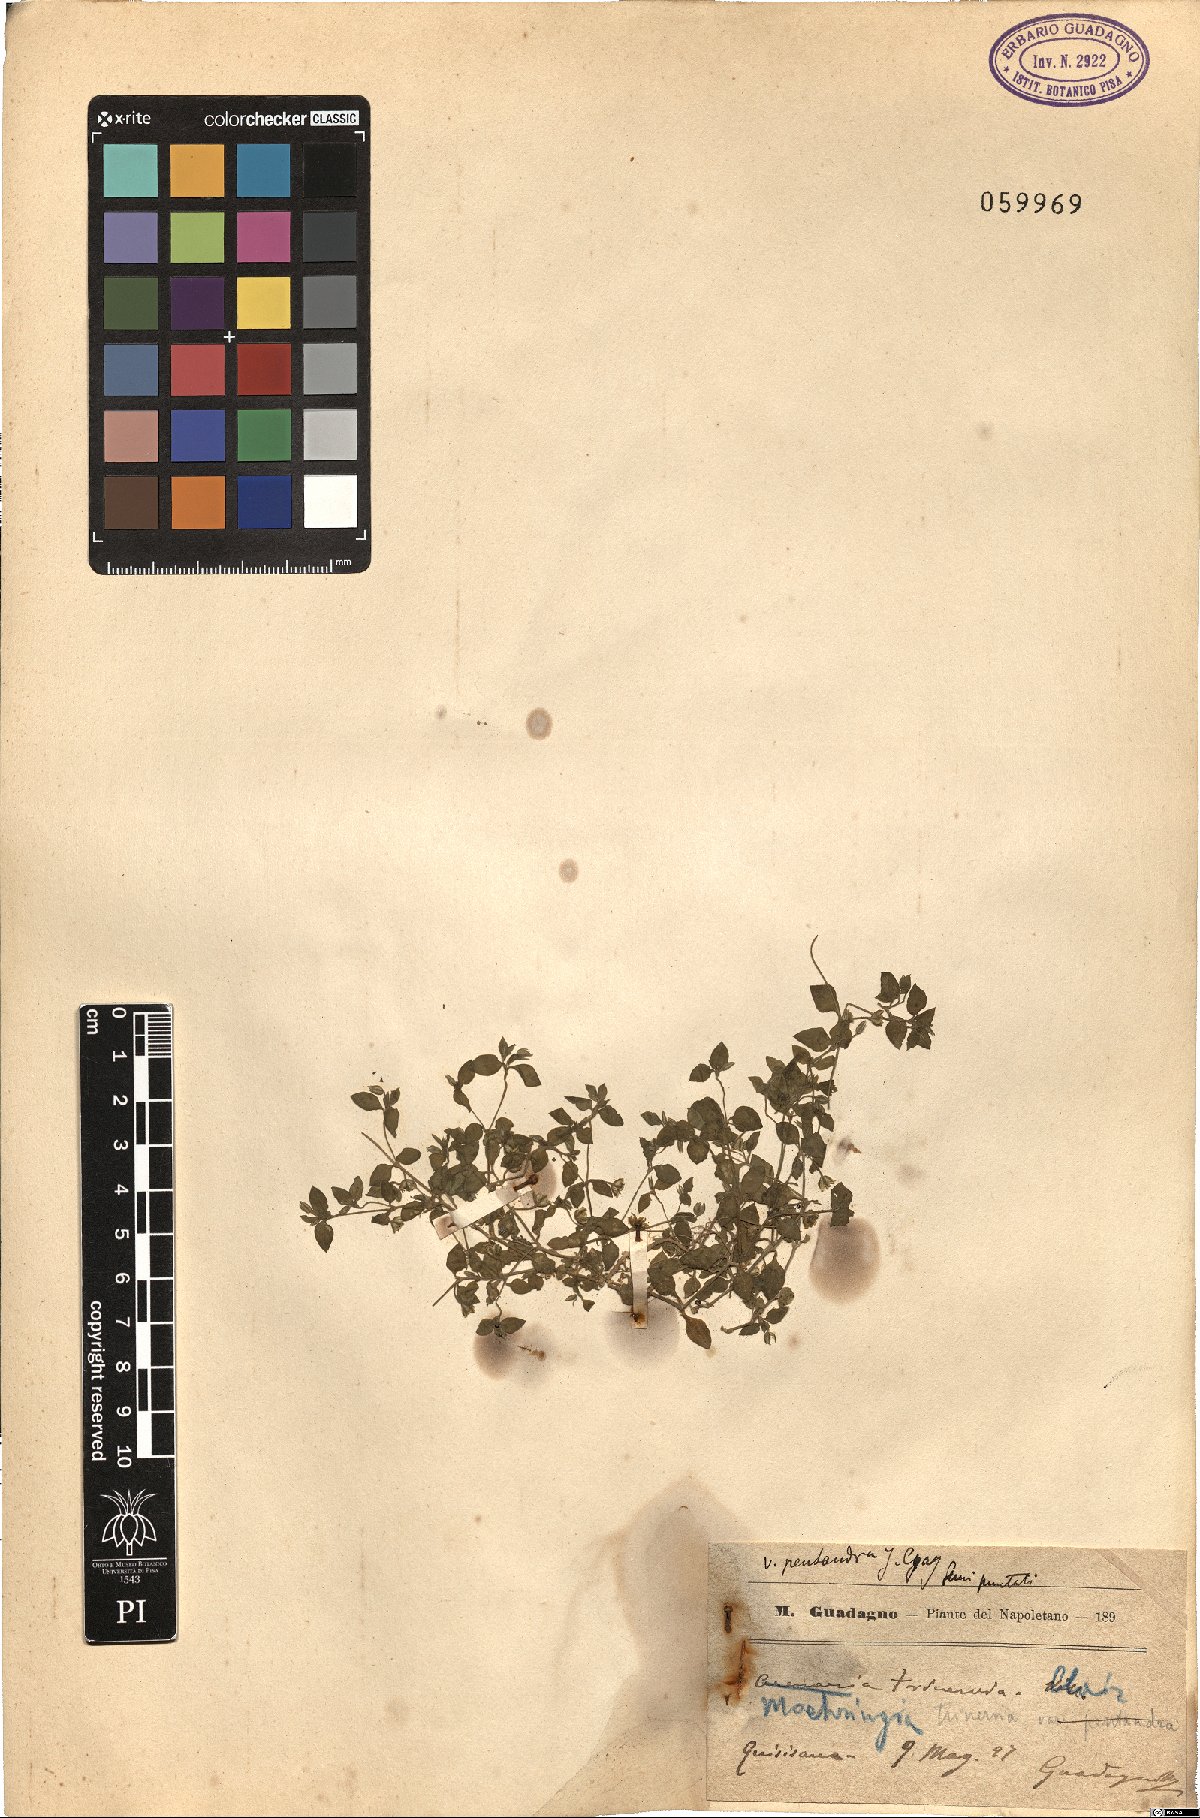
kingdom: Plantae
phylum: Tracheophyta
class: Magnoliopsida
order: Caryophyllales
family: Caryophyllaceae
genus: Moehringia
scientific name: Moehringia trinervia
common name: Three-nerved sandwort
